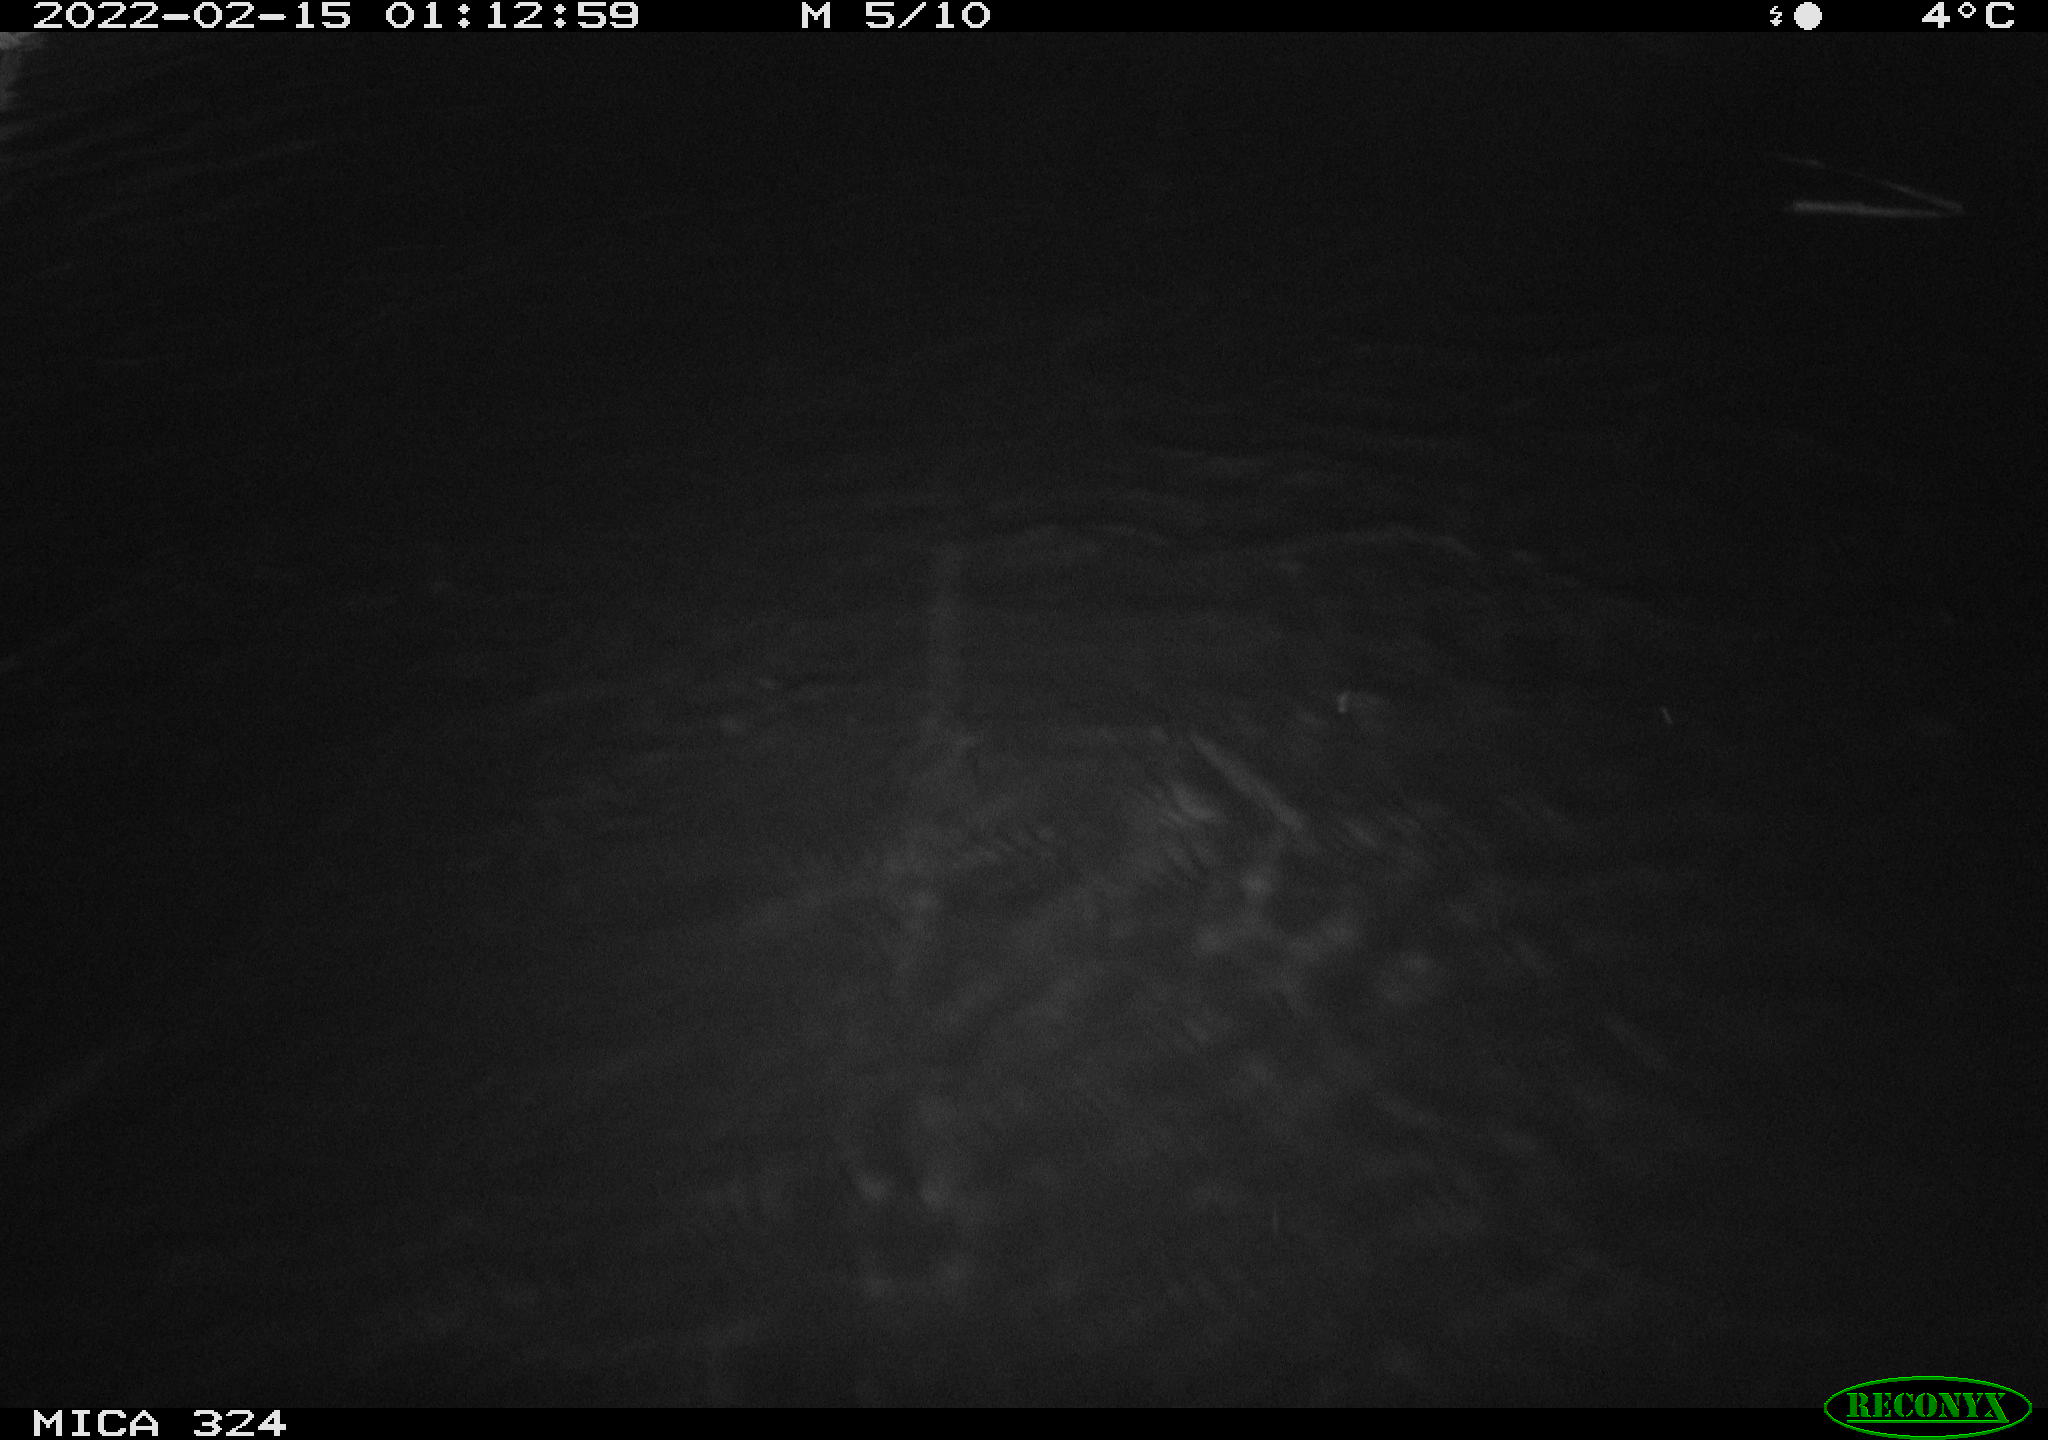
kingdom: Animalia
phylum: Chordata
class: Mammalia
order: Rodentia
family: Cricetidae
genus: Ondatra
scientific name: Ondatra zibethicus
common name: Muskrat
